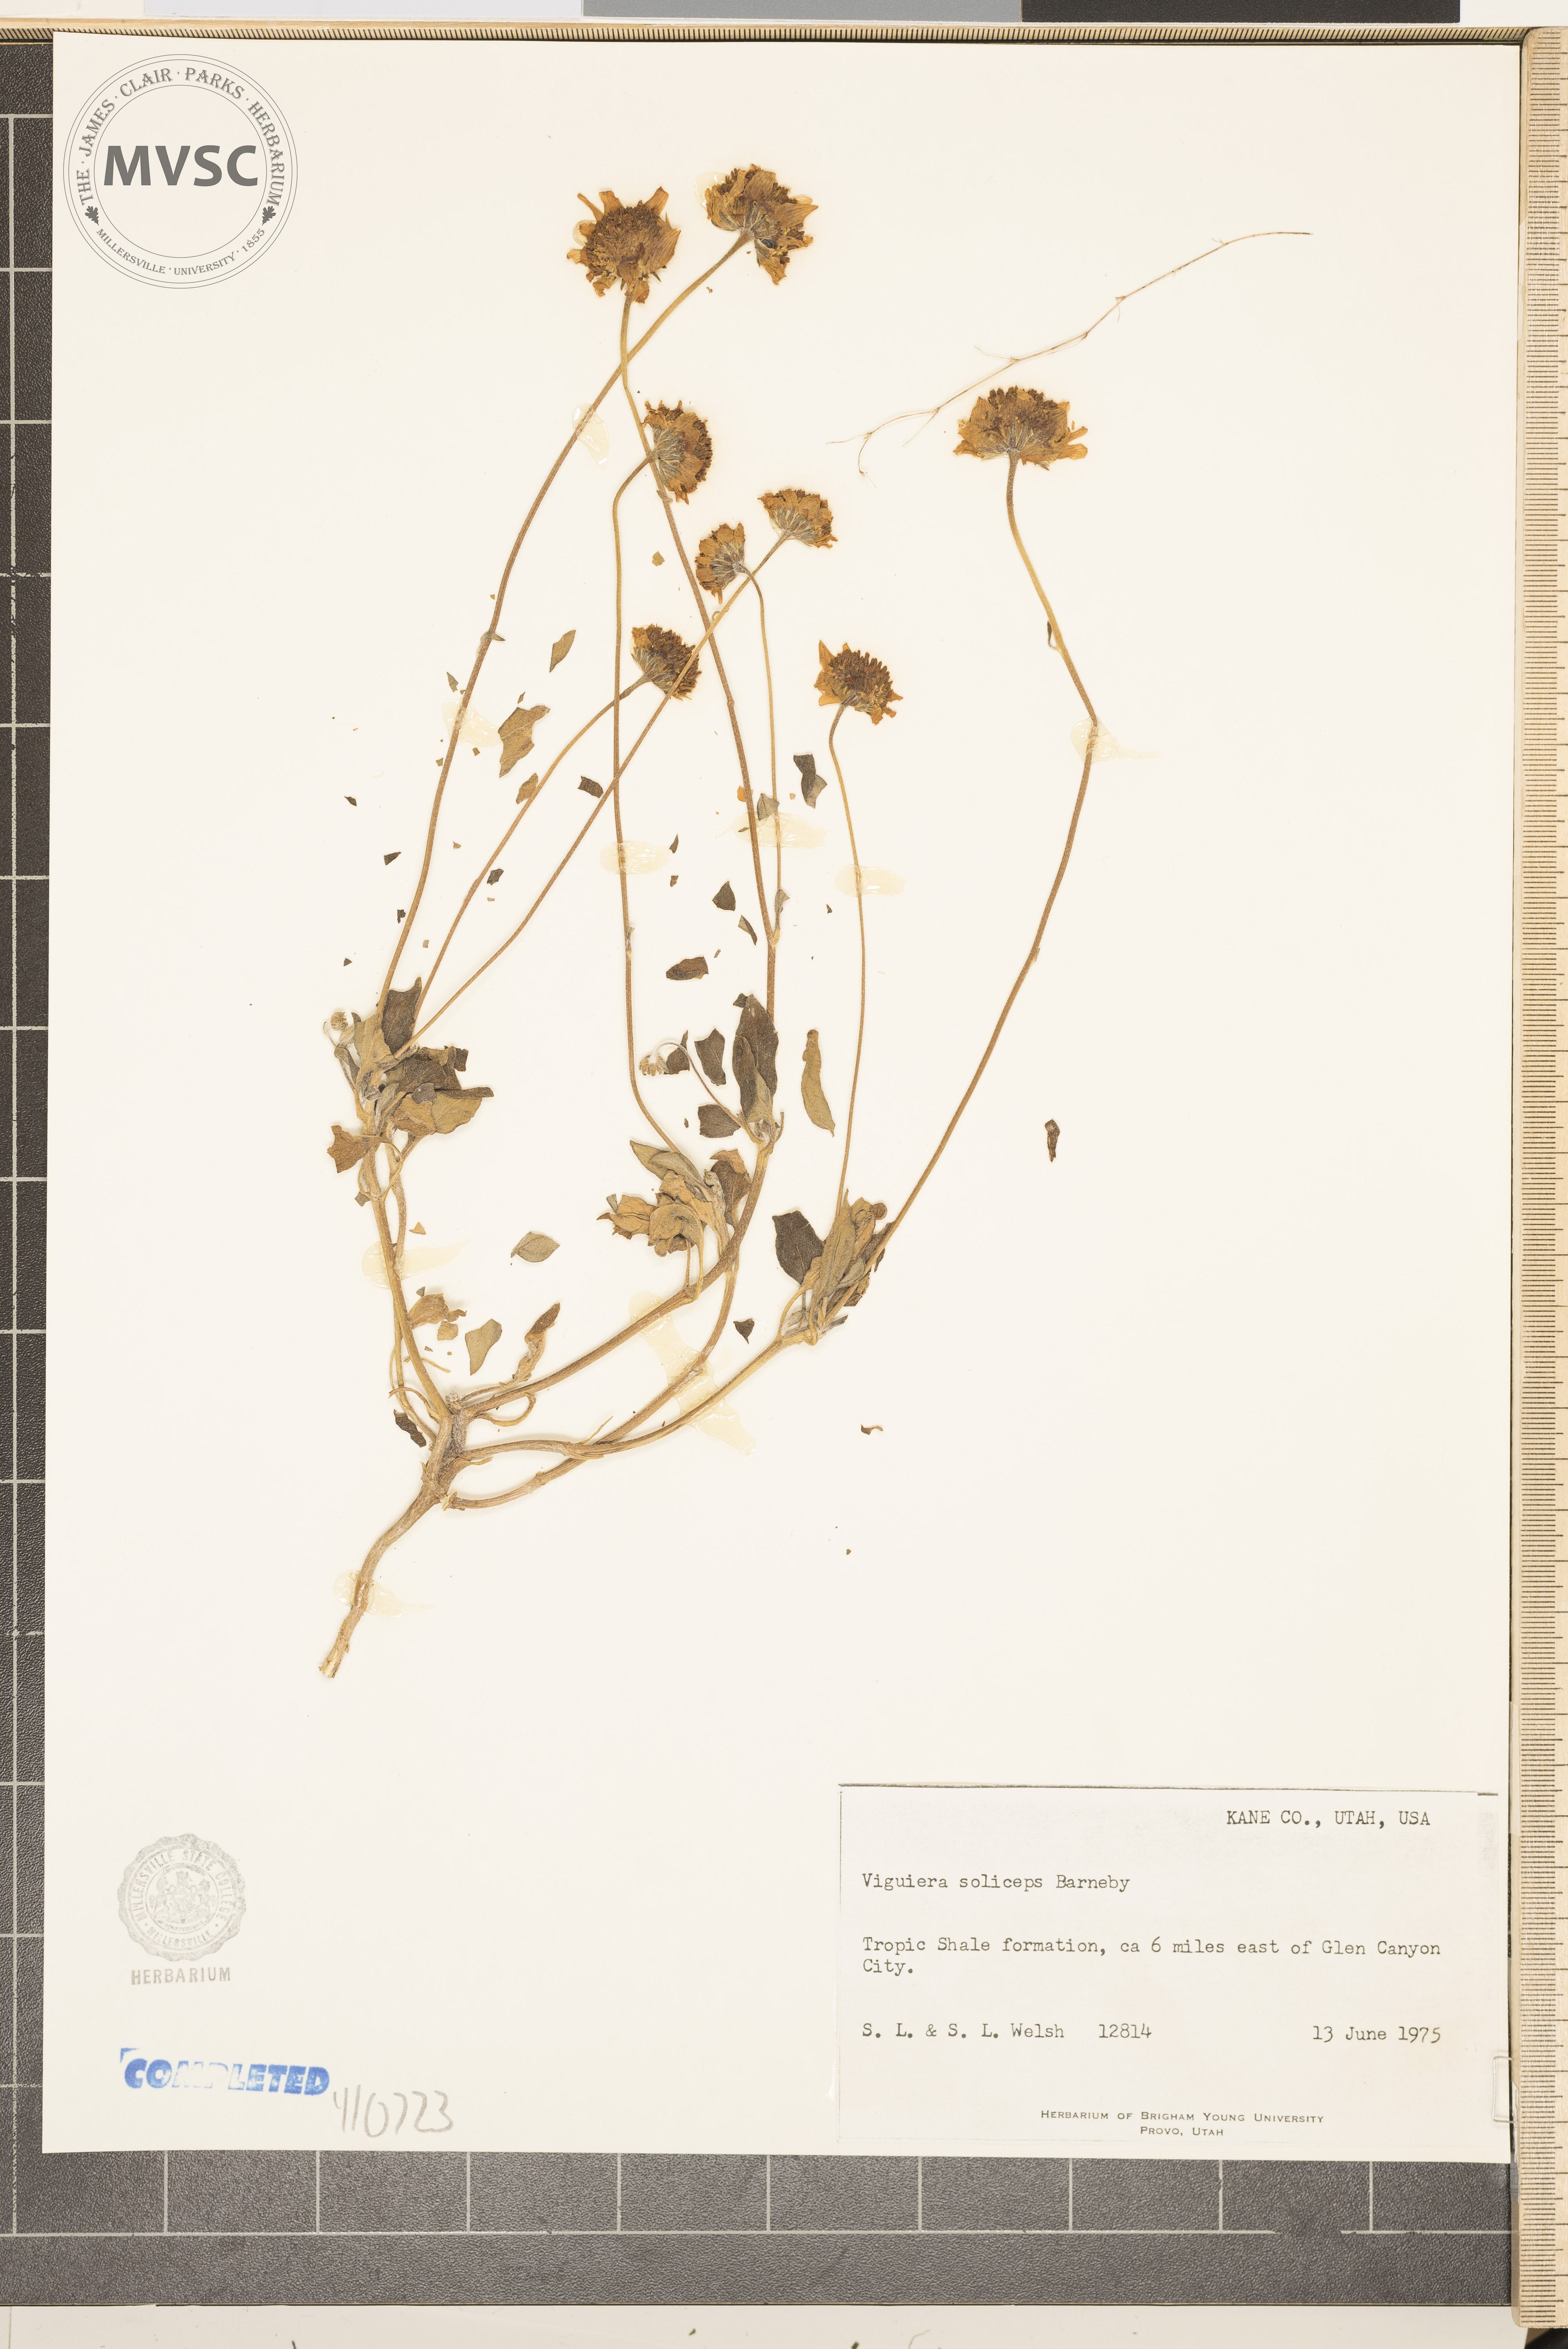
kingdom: Plantae
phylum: Tracheophyta
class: Magnoliopsida
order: Asterales
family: Asteraceae
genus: Heliomeris
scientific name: Heliomeris soliceps
